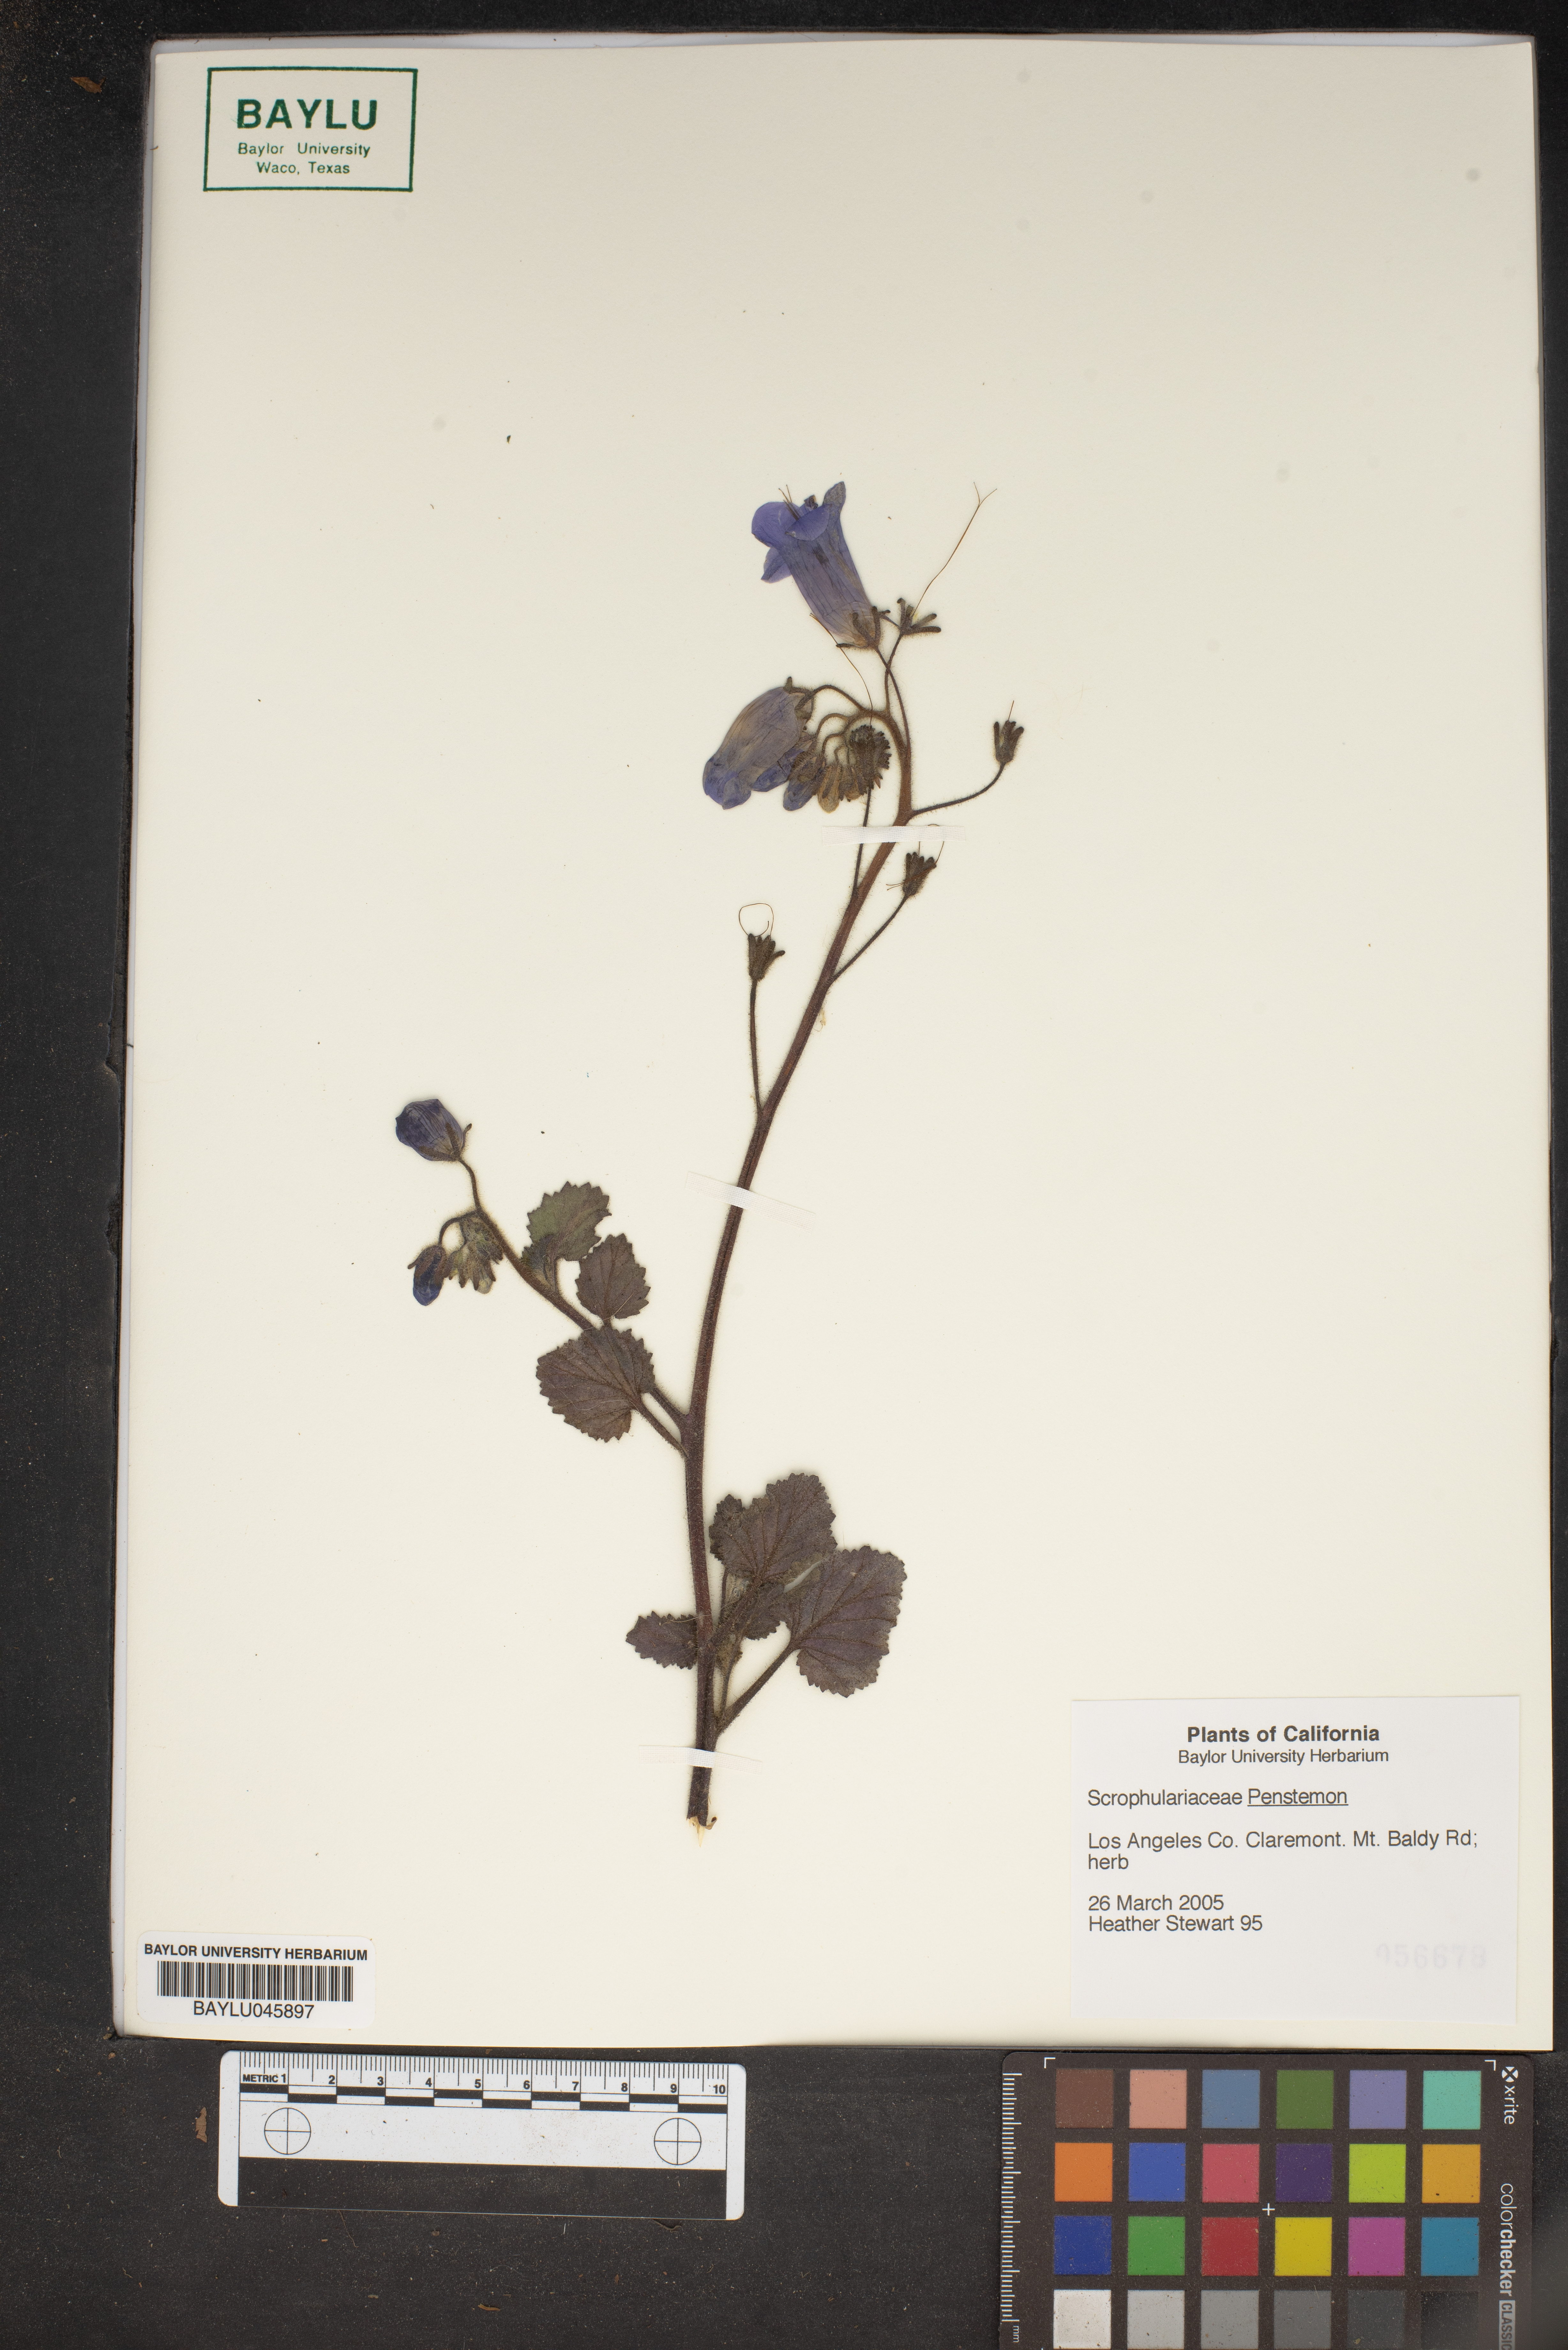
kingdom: Plantae
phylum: Tracheophyta
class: Magnoliopsida
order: Lamiales
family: Plantaginaceae
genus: Penstemon
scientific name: Penstemon
